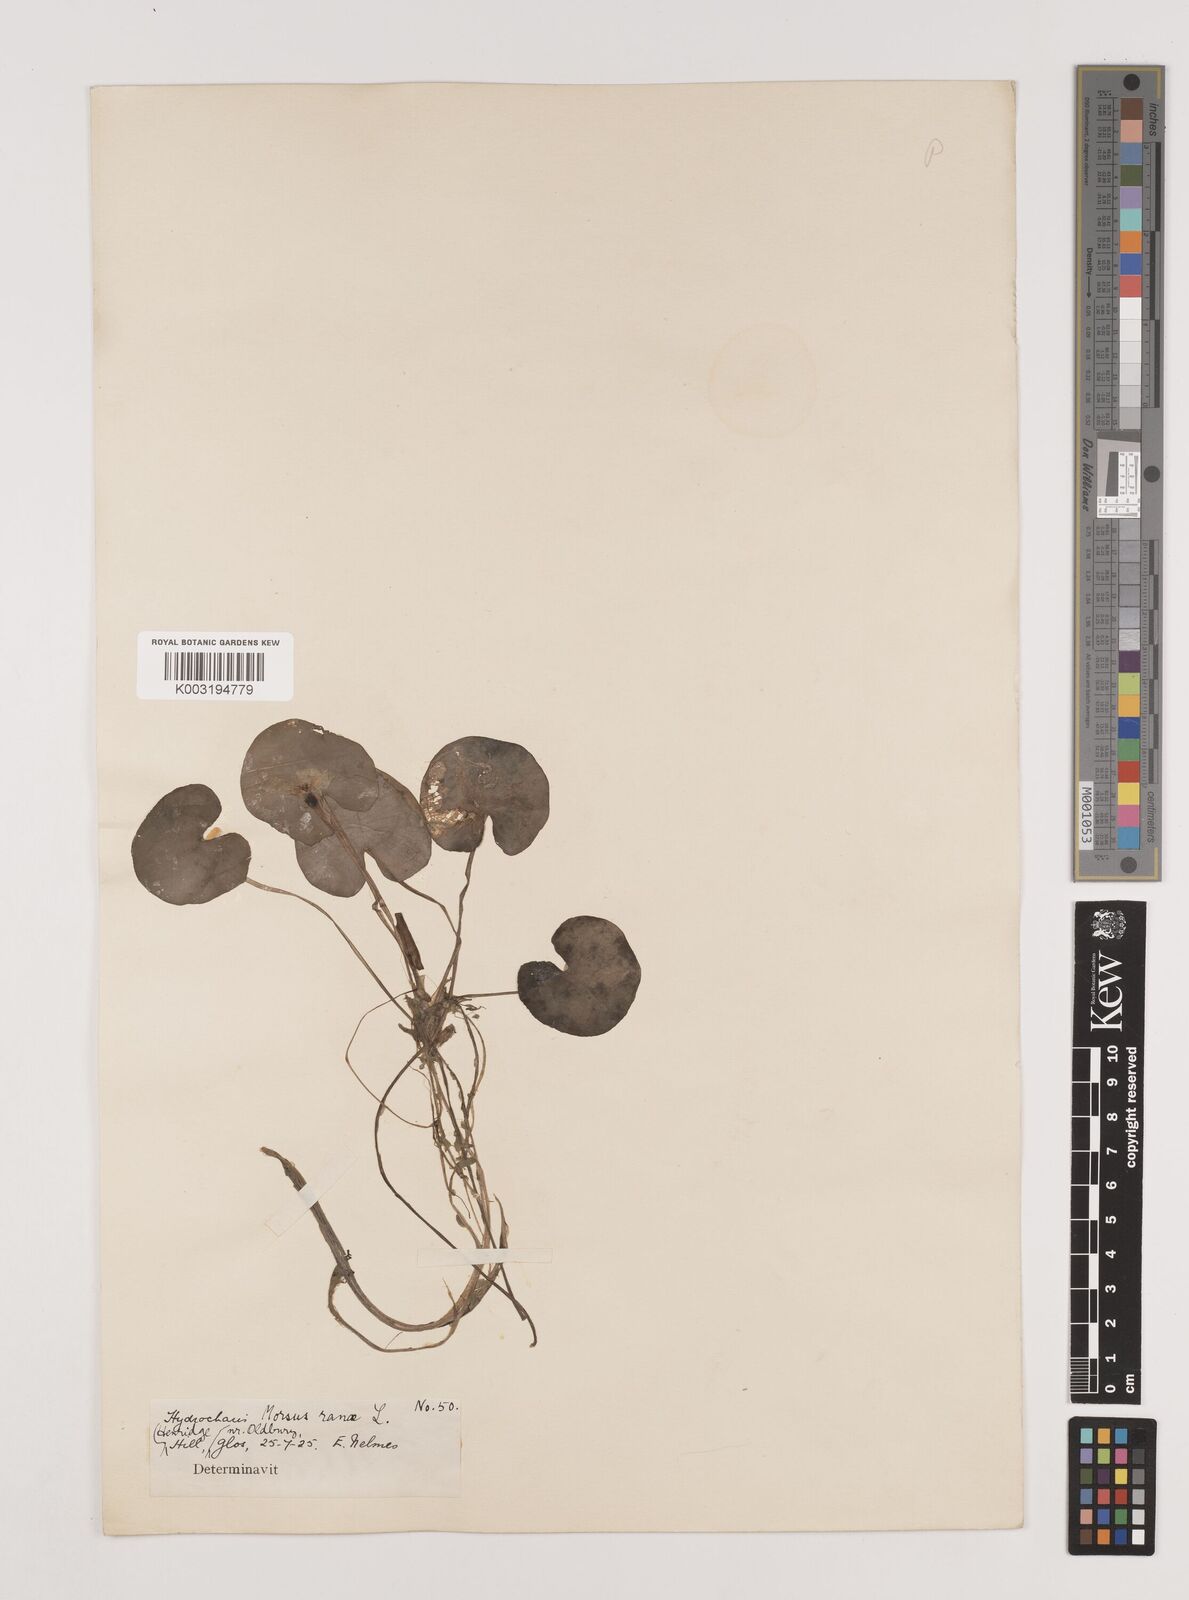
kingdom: Plantae
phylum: Tracheophyta
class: Liliopsida
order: Alismatales
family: Hydrocharitaceae
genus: Hydrocharis
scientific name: Hydrocharis morsus-ranae
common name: Frogbit
